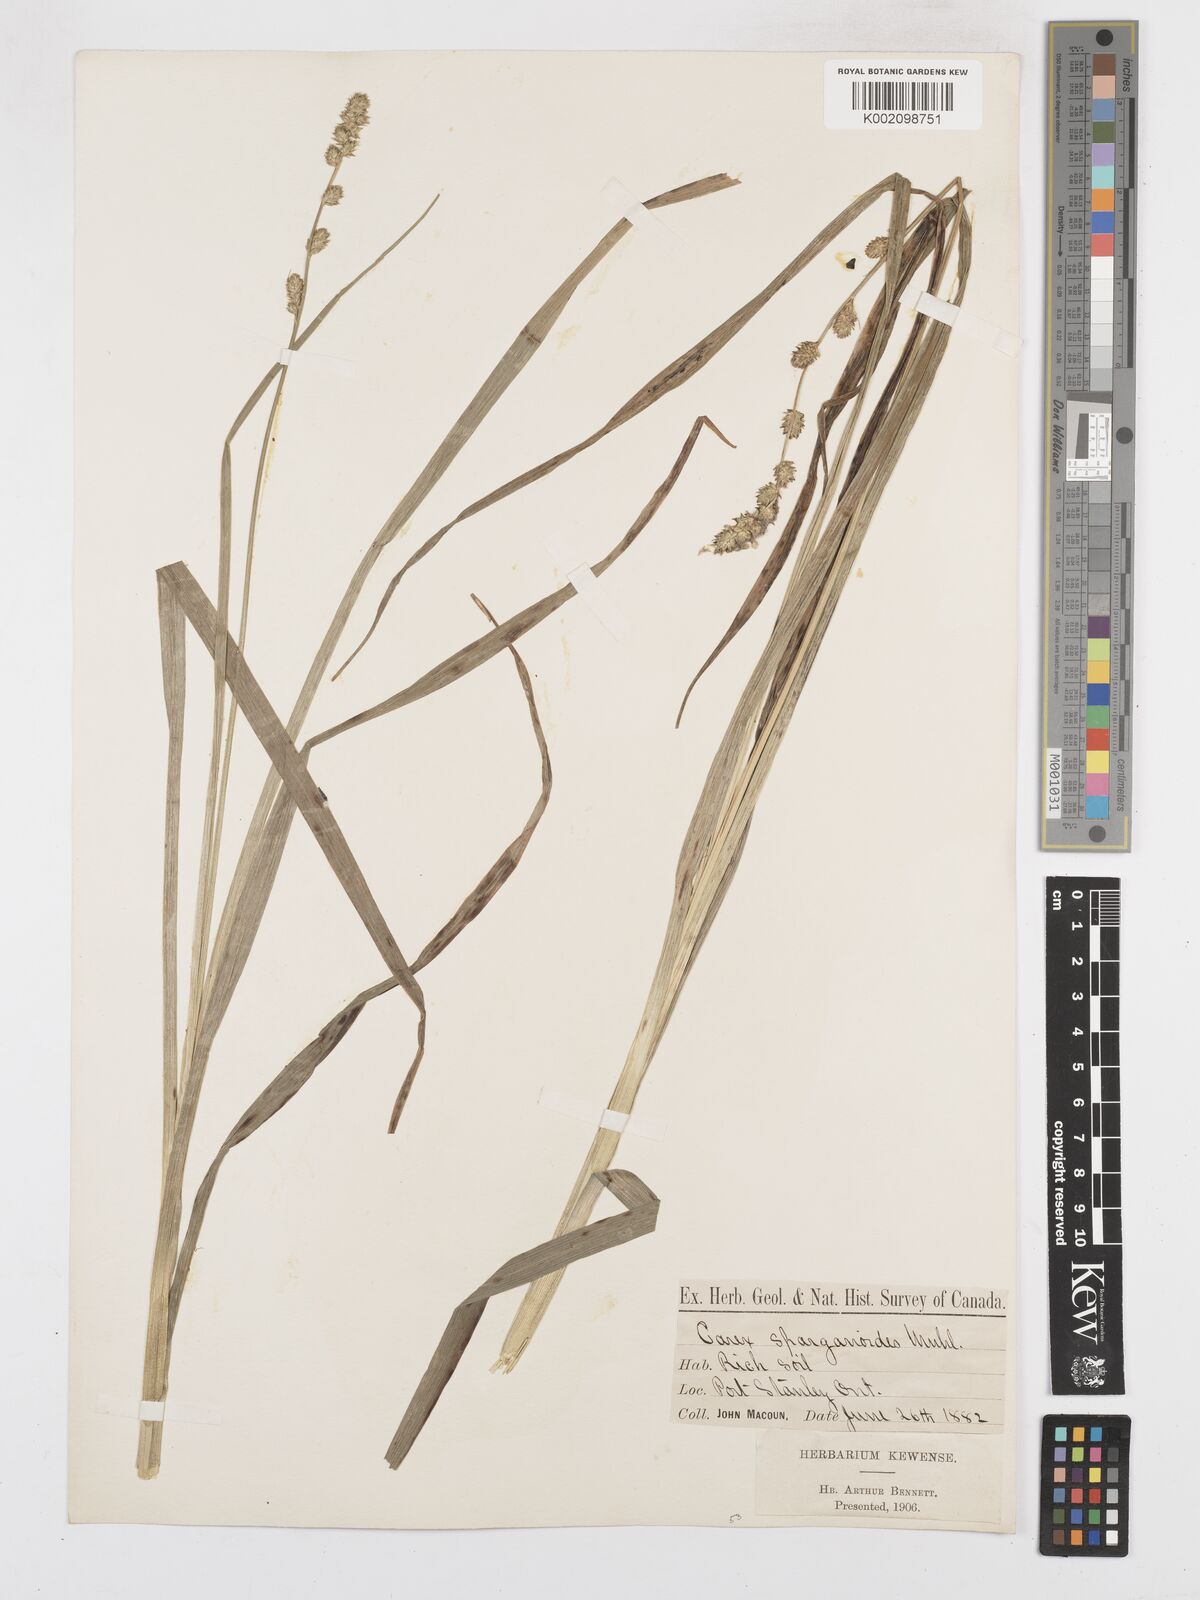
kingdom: Plantae
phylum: Tracheophyta
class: Liliopsida
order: Poales
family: Cyperaceae
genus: Carex
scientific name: Carex sparganioides
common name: Burreed sedge
